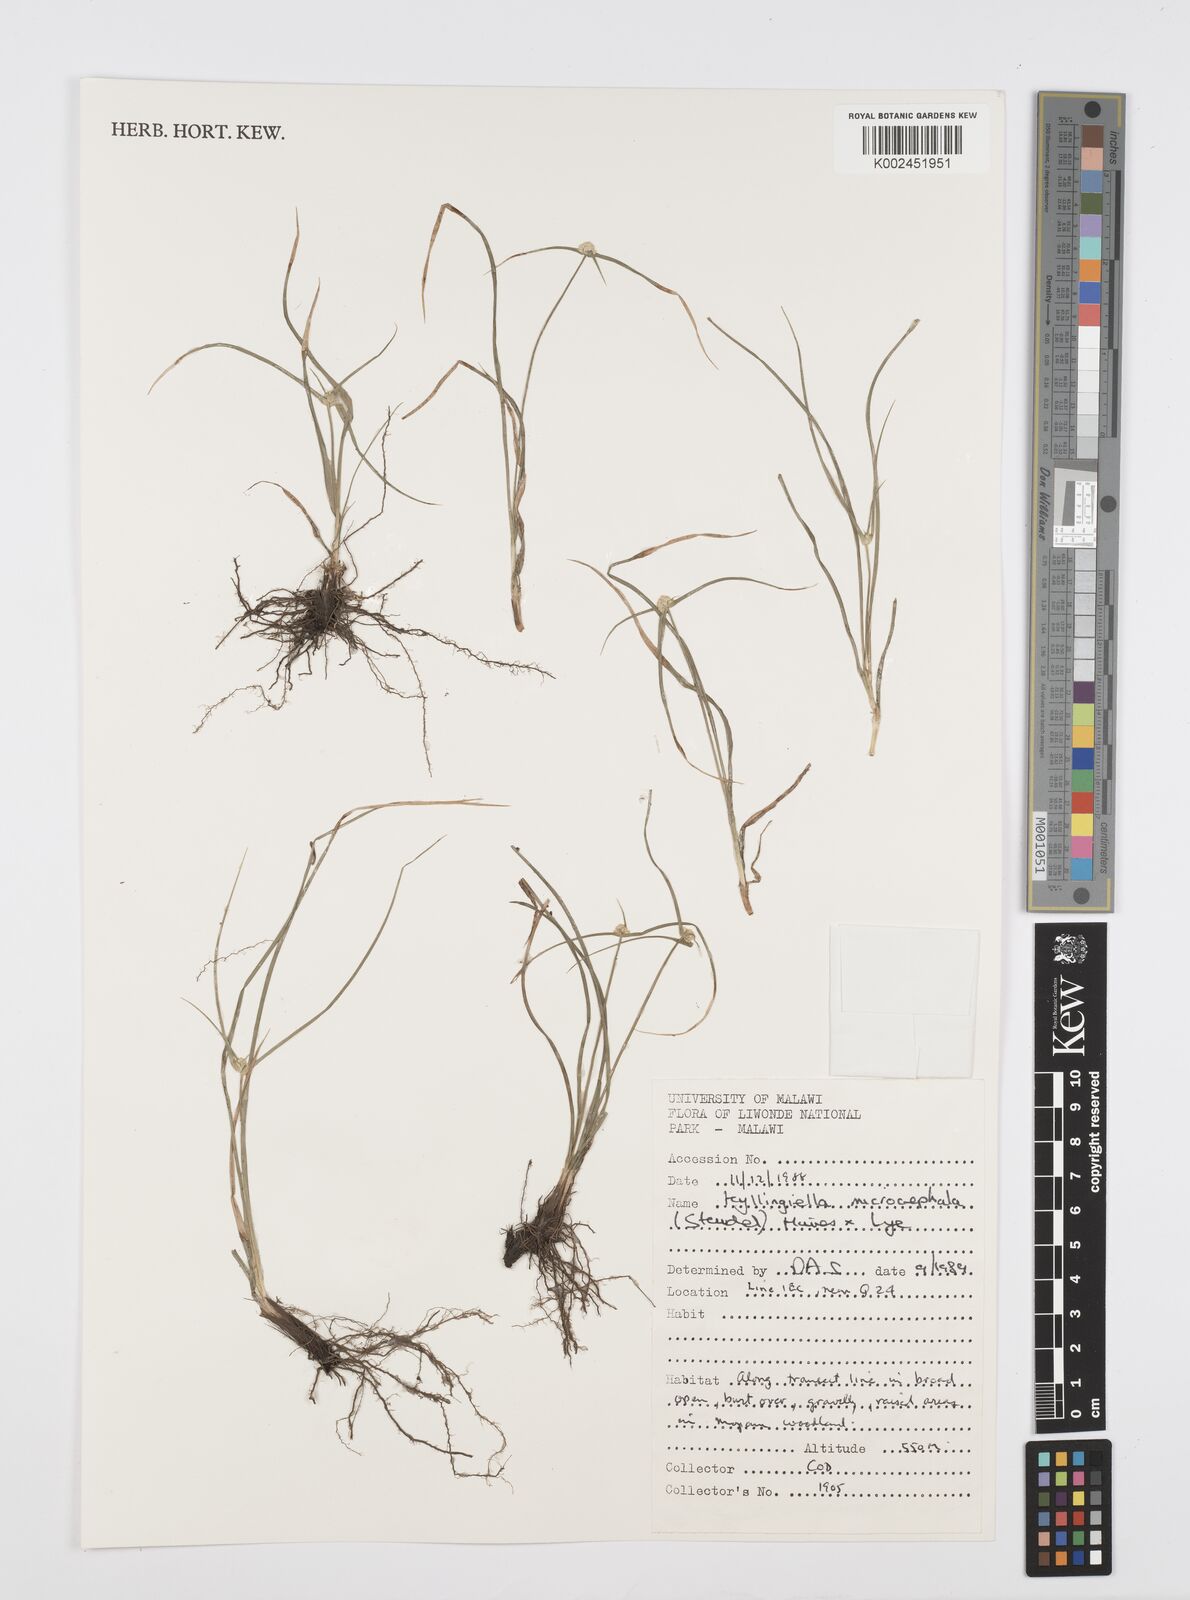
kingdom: Plantae
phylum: Tracheophyta
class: Liliopsida
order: Poales
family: Cyperaceae
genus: Cyperus
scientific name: Cyperus microcephalus
